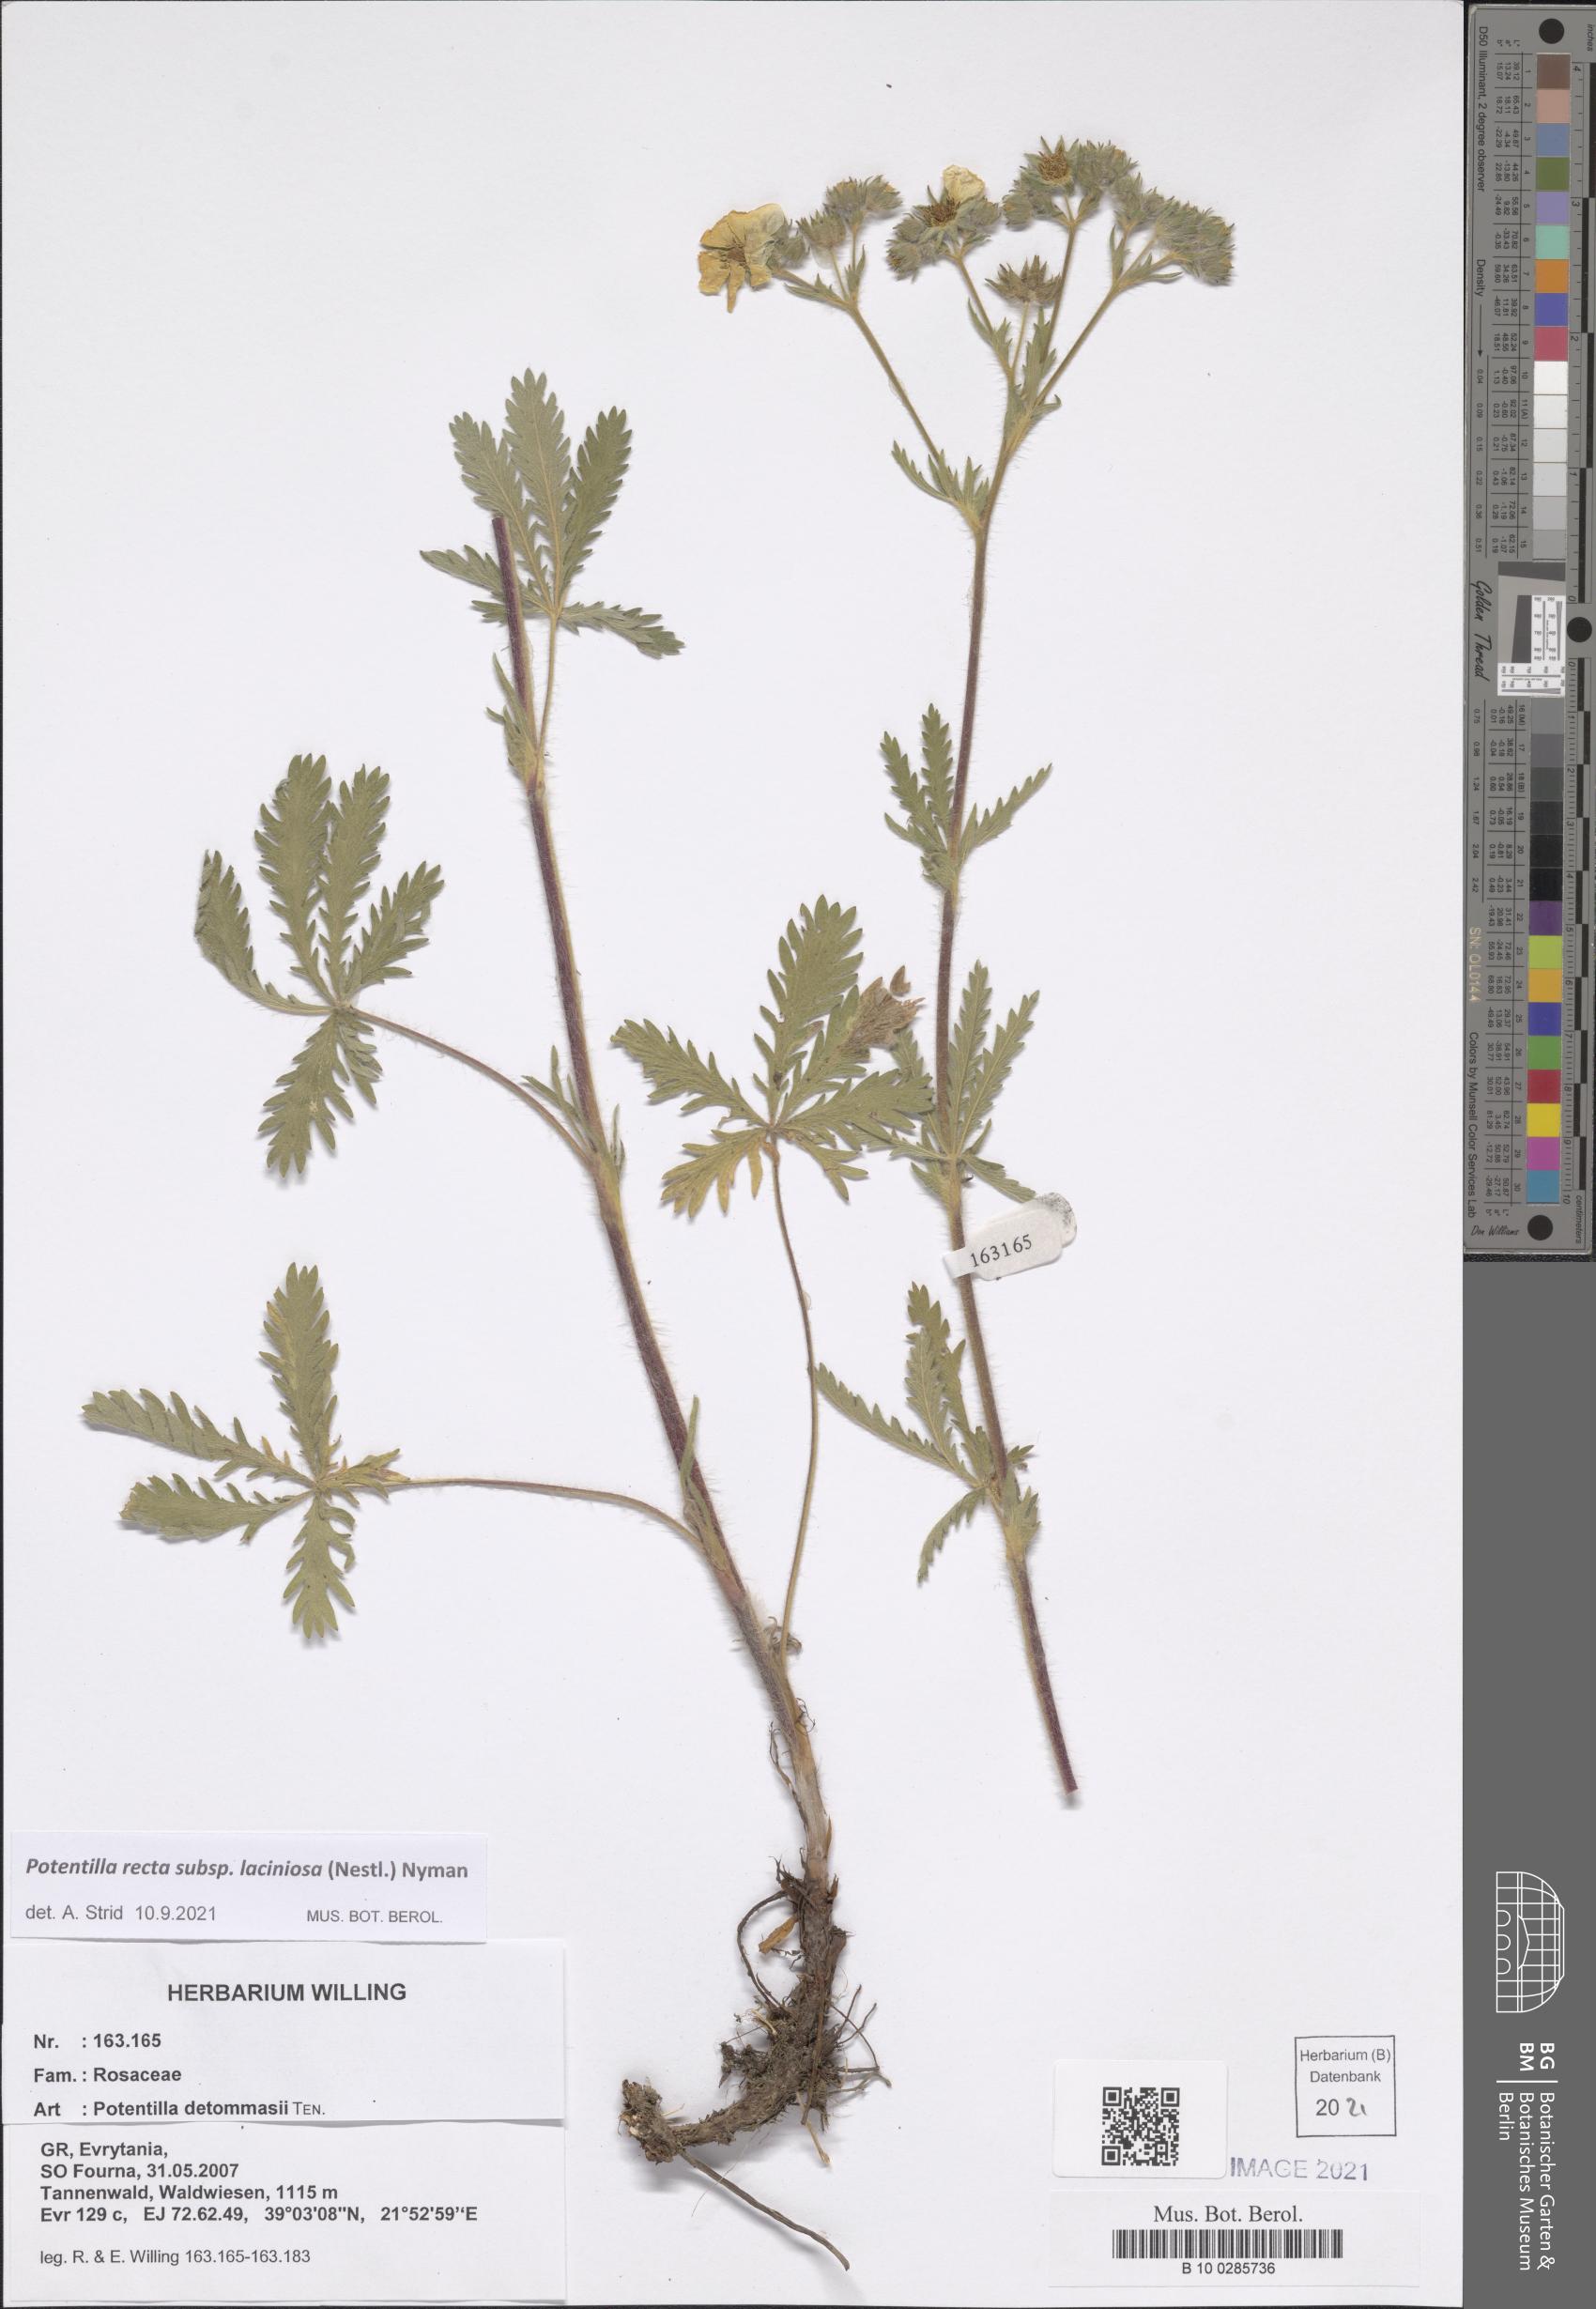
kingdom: Plantae
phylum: Tracheophyta
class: Magnoliopsida
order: Rosales
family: Rosaceae
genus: Potentilla
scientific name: Potentilla recta
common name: Sulphur cinquefoil
